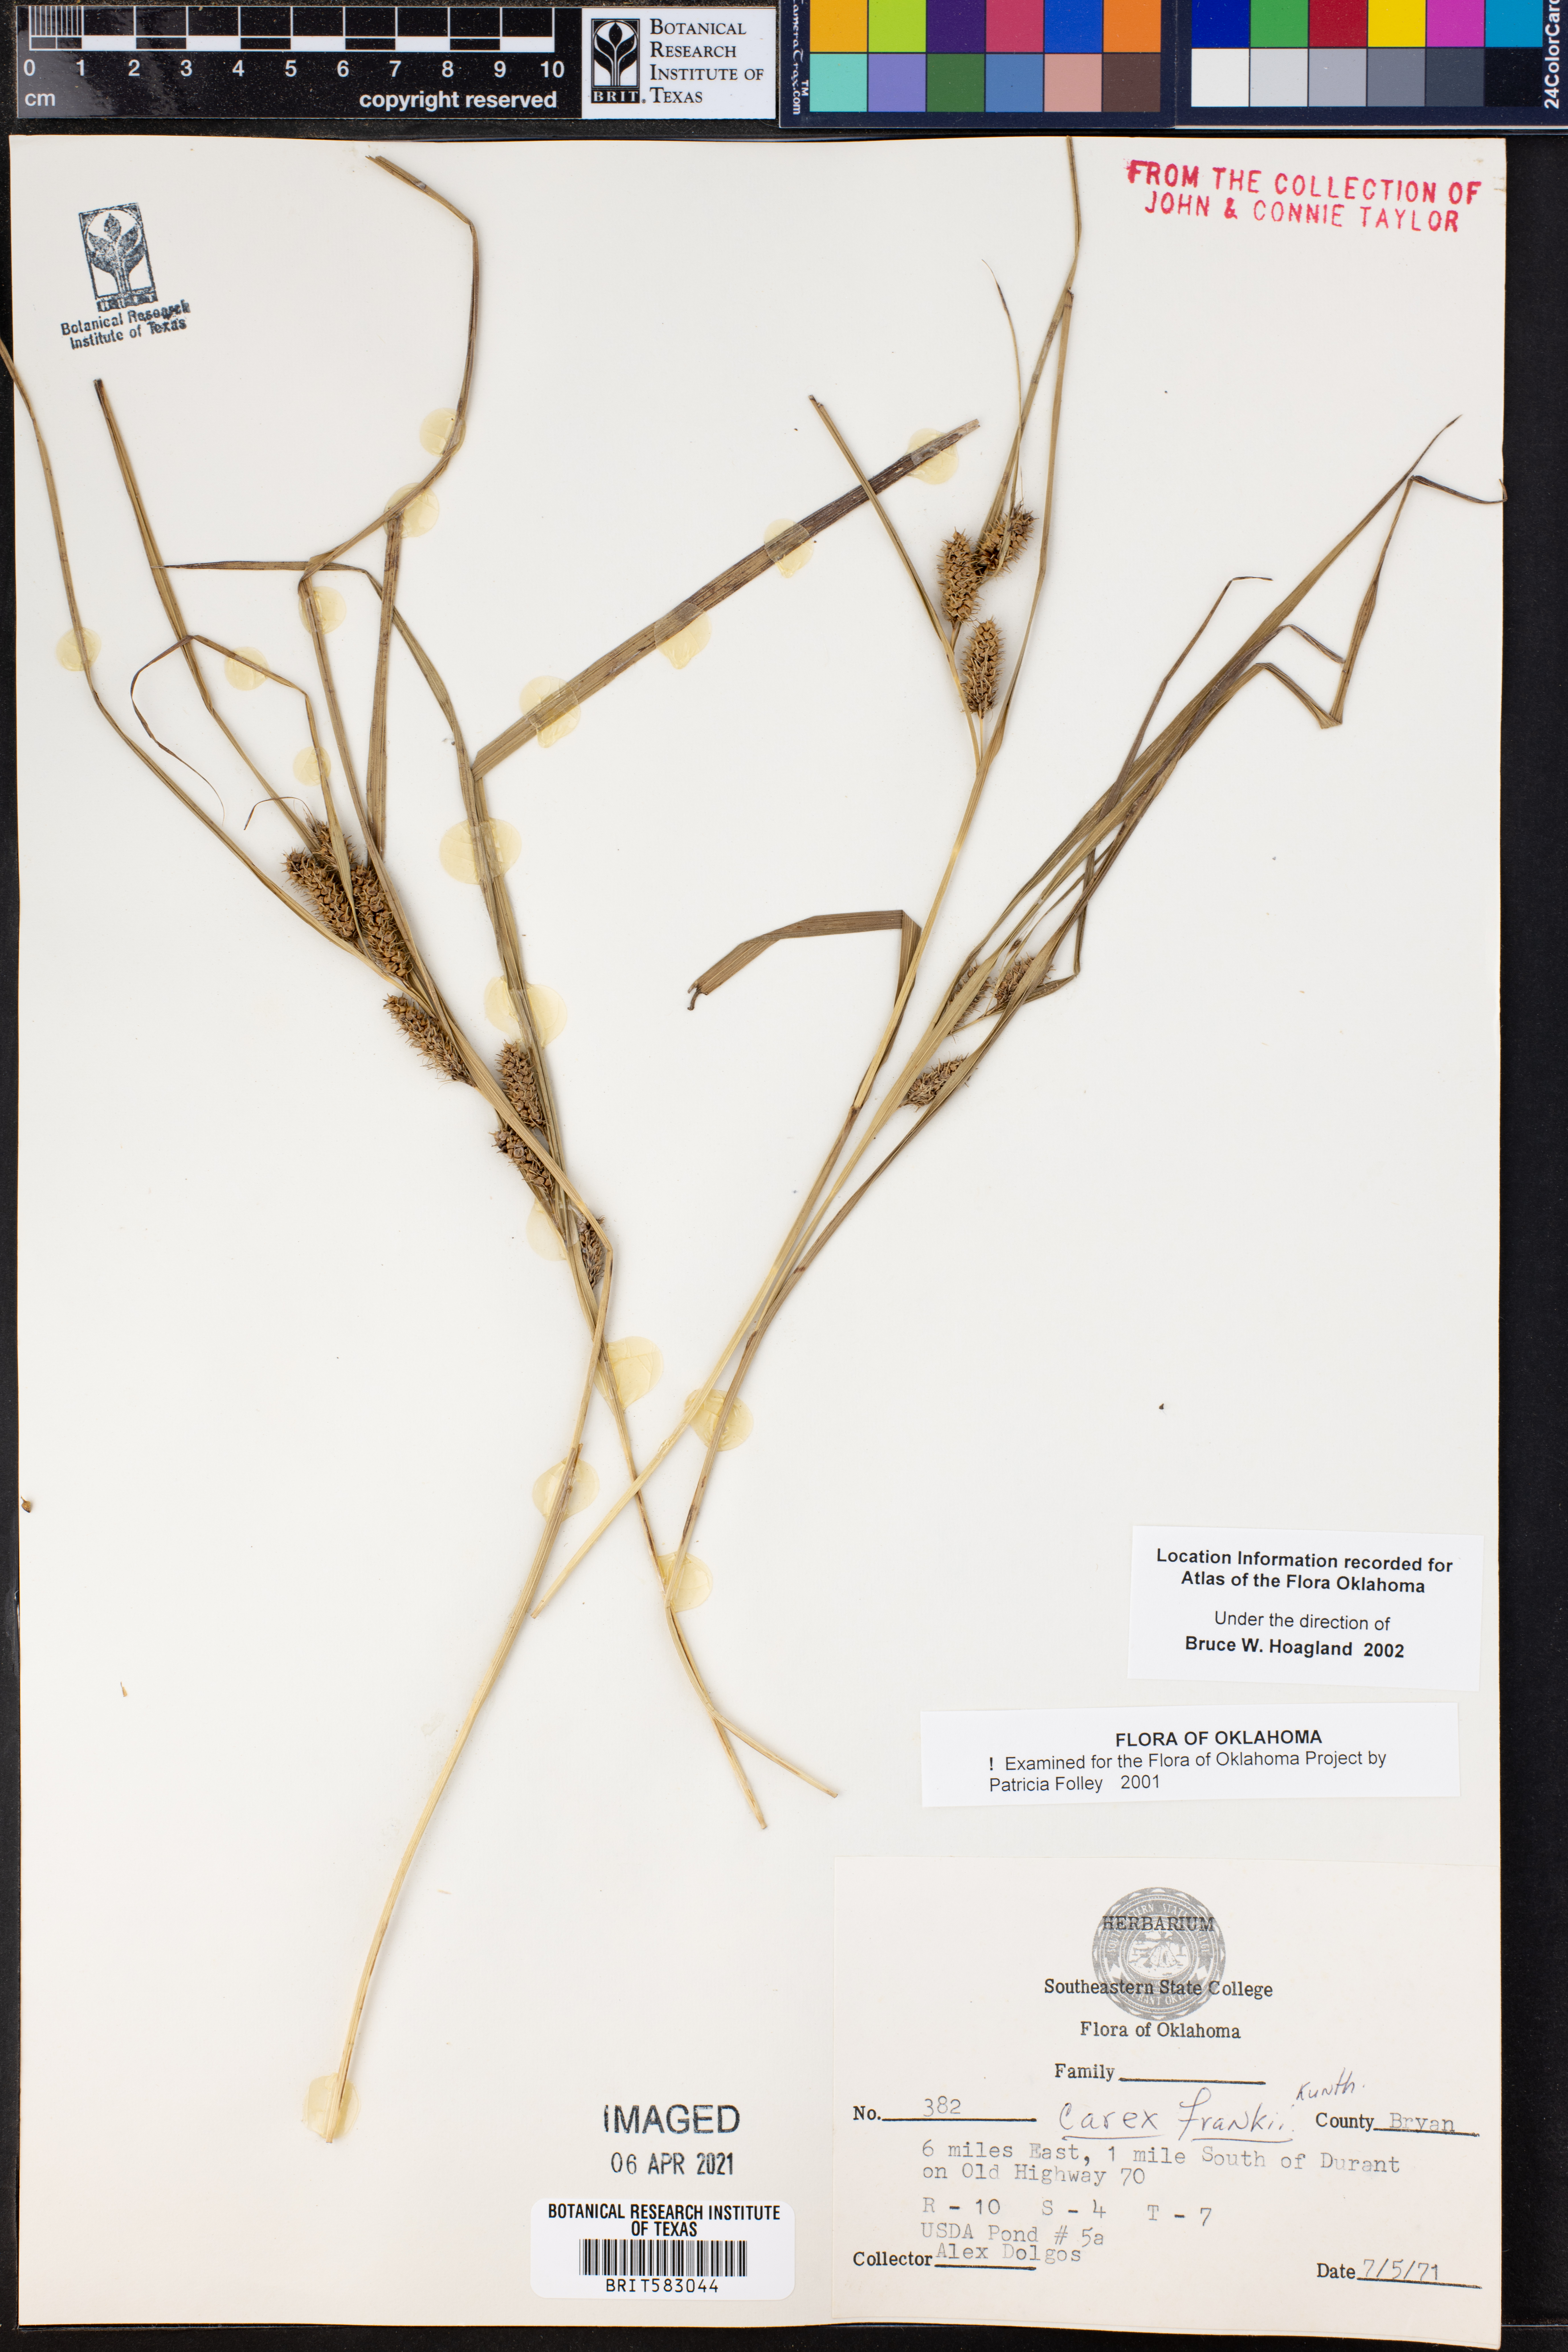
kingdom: Plantae
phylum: Tracheophyta
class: Liliopsida
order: Poales
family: Cyperaceae
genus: Carex
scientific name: Carex frankii
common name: Frank's sedge
